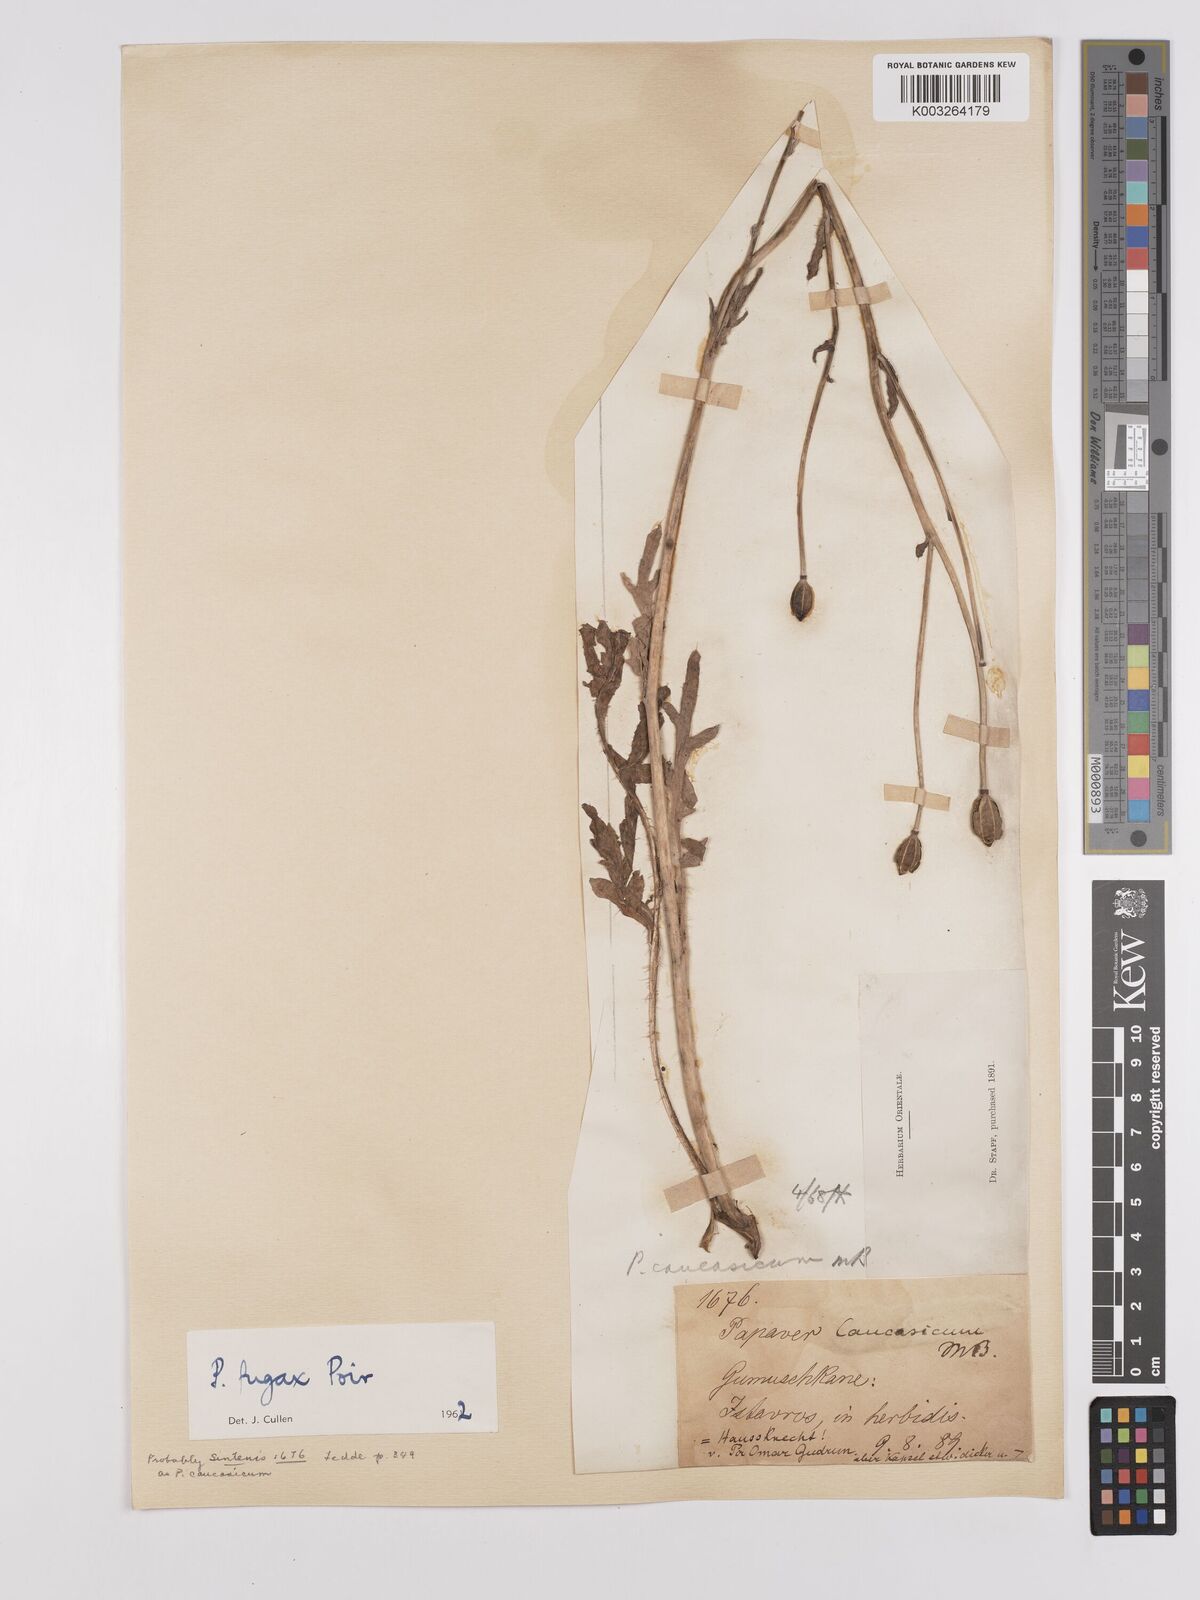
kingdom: Plantae
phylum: Tracheophyta
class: Magnoliopsida
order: Ranunculales
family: Papaveraceae
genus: Papaver
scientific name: Papaver armeniacum
